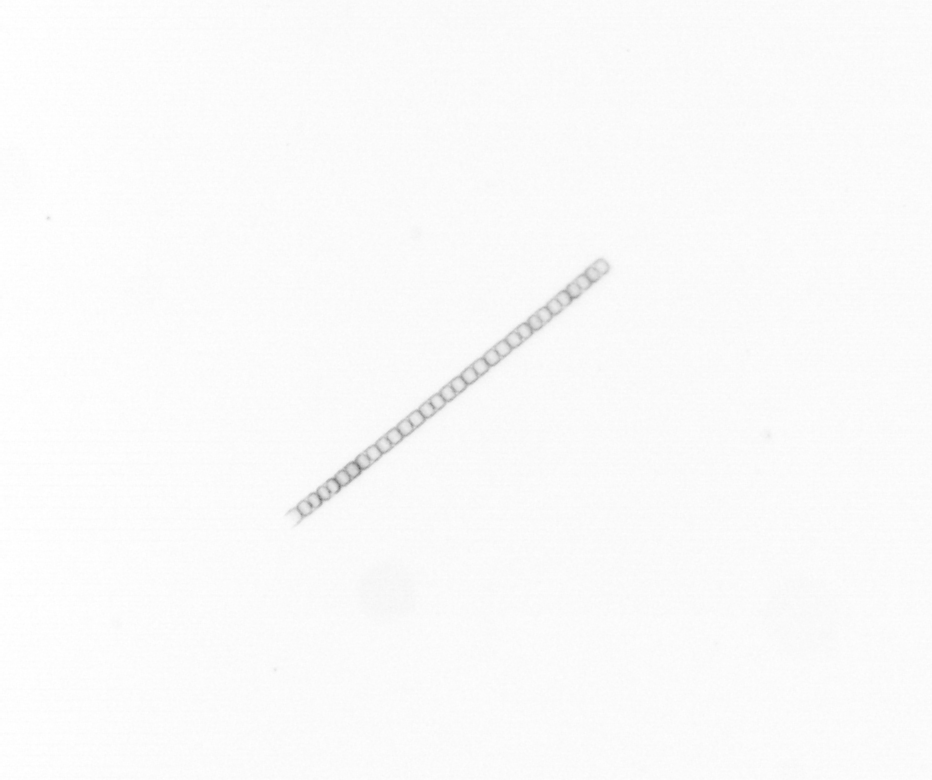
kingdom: Chromista
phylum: Ochrophyta
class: Bacillariophyceae
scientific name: Bacillariophyceae
